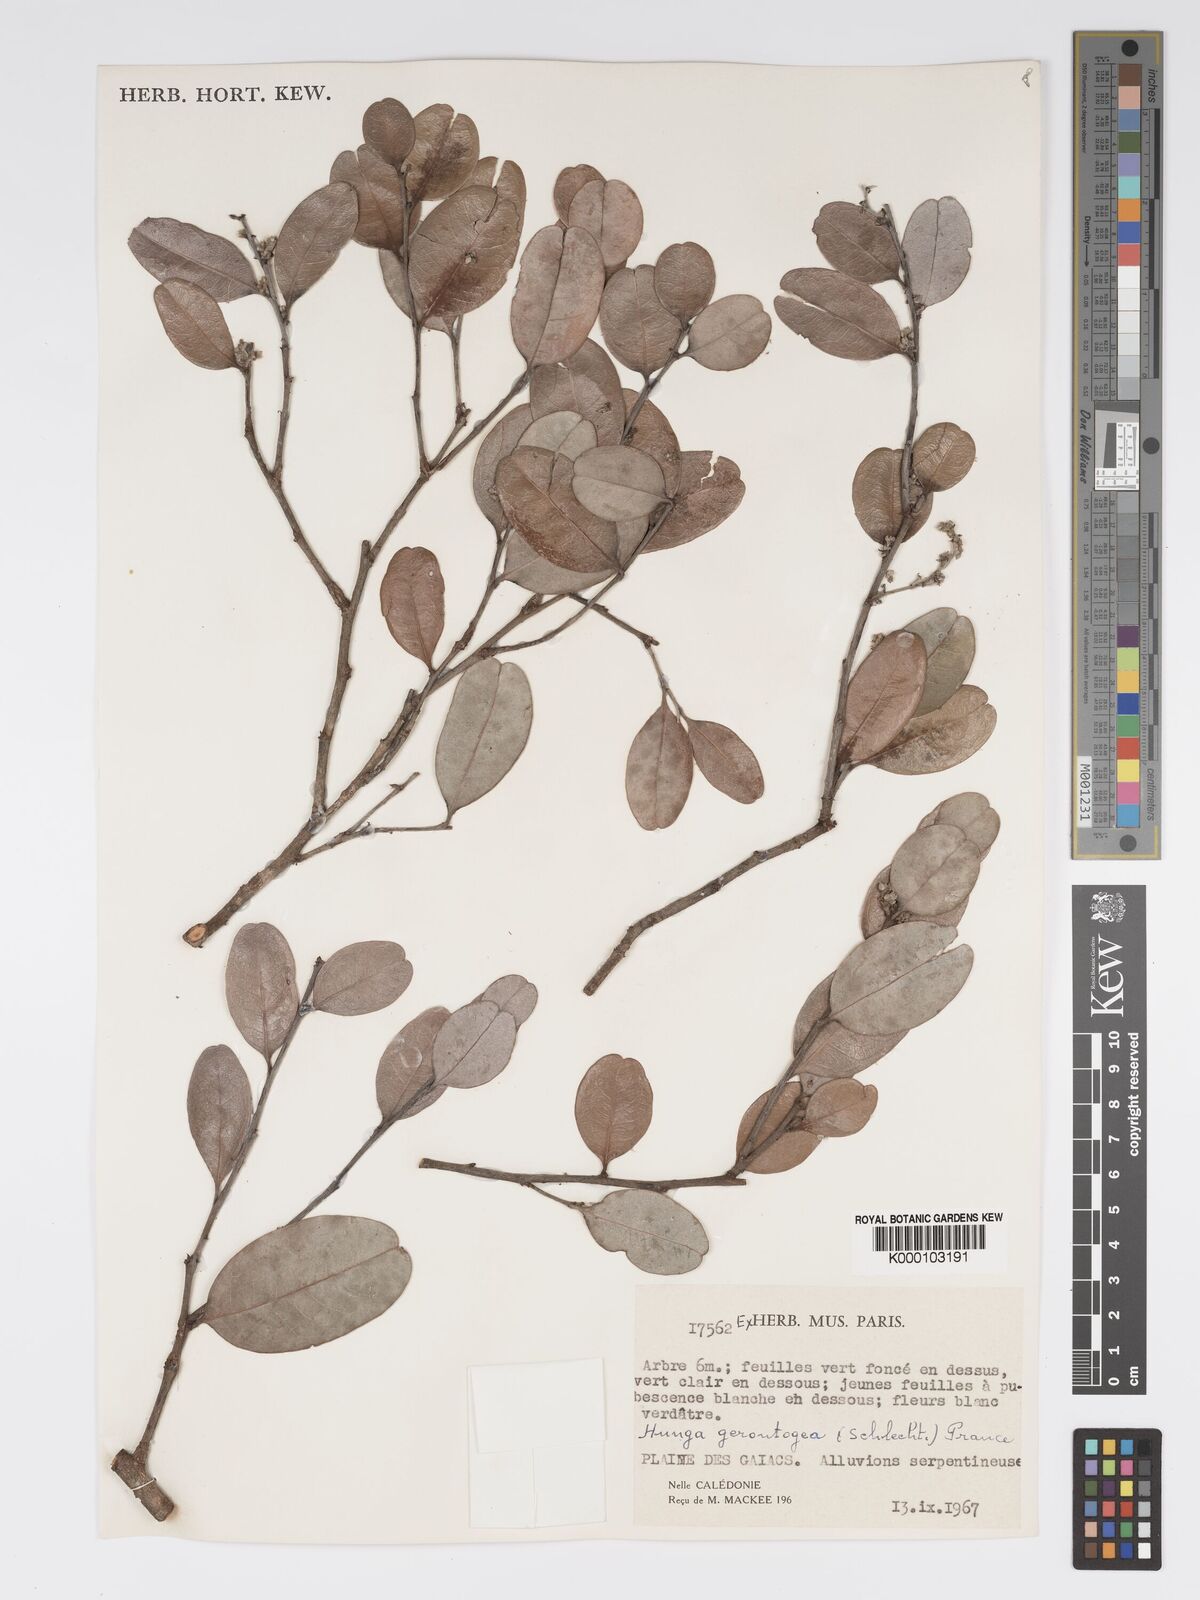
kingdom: Plantae
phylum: Tracheophyta
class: Magnoliopsida
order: Malpighiales
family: Chrysobalanaceae
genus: Hunga
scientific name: Hunga gerontogea
